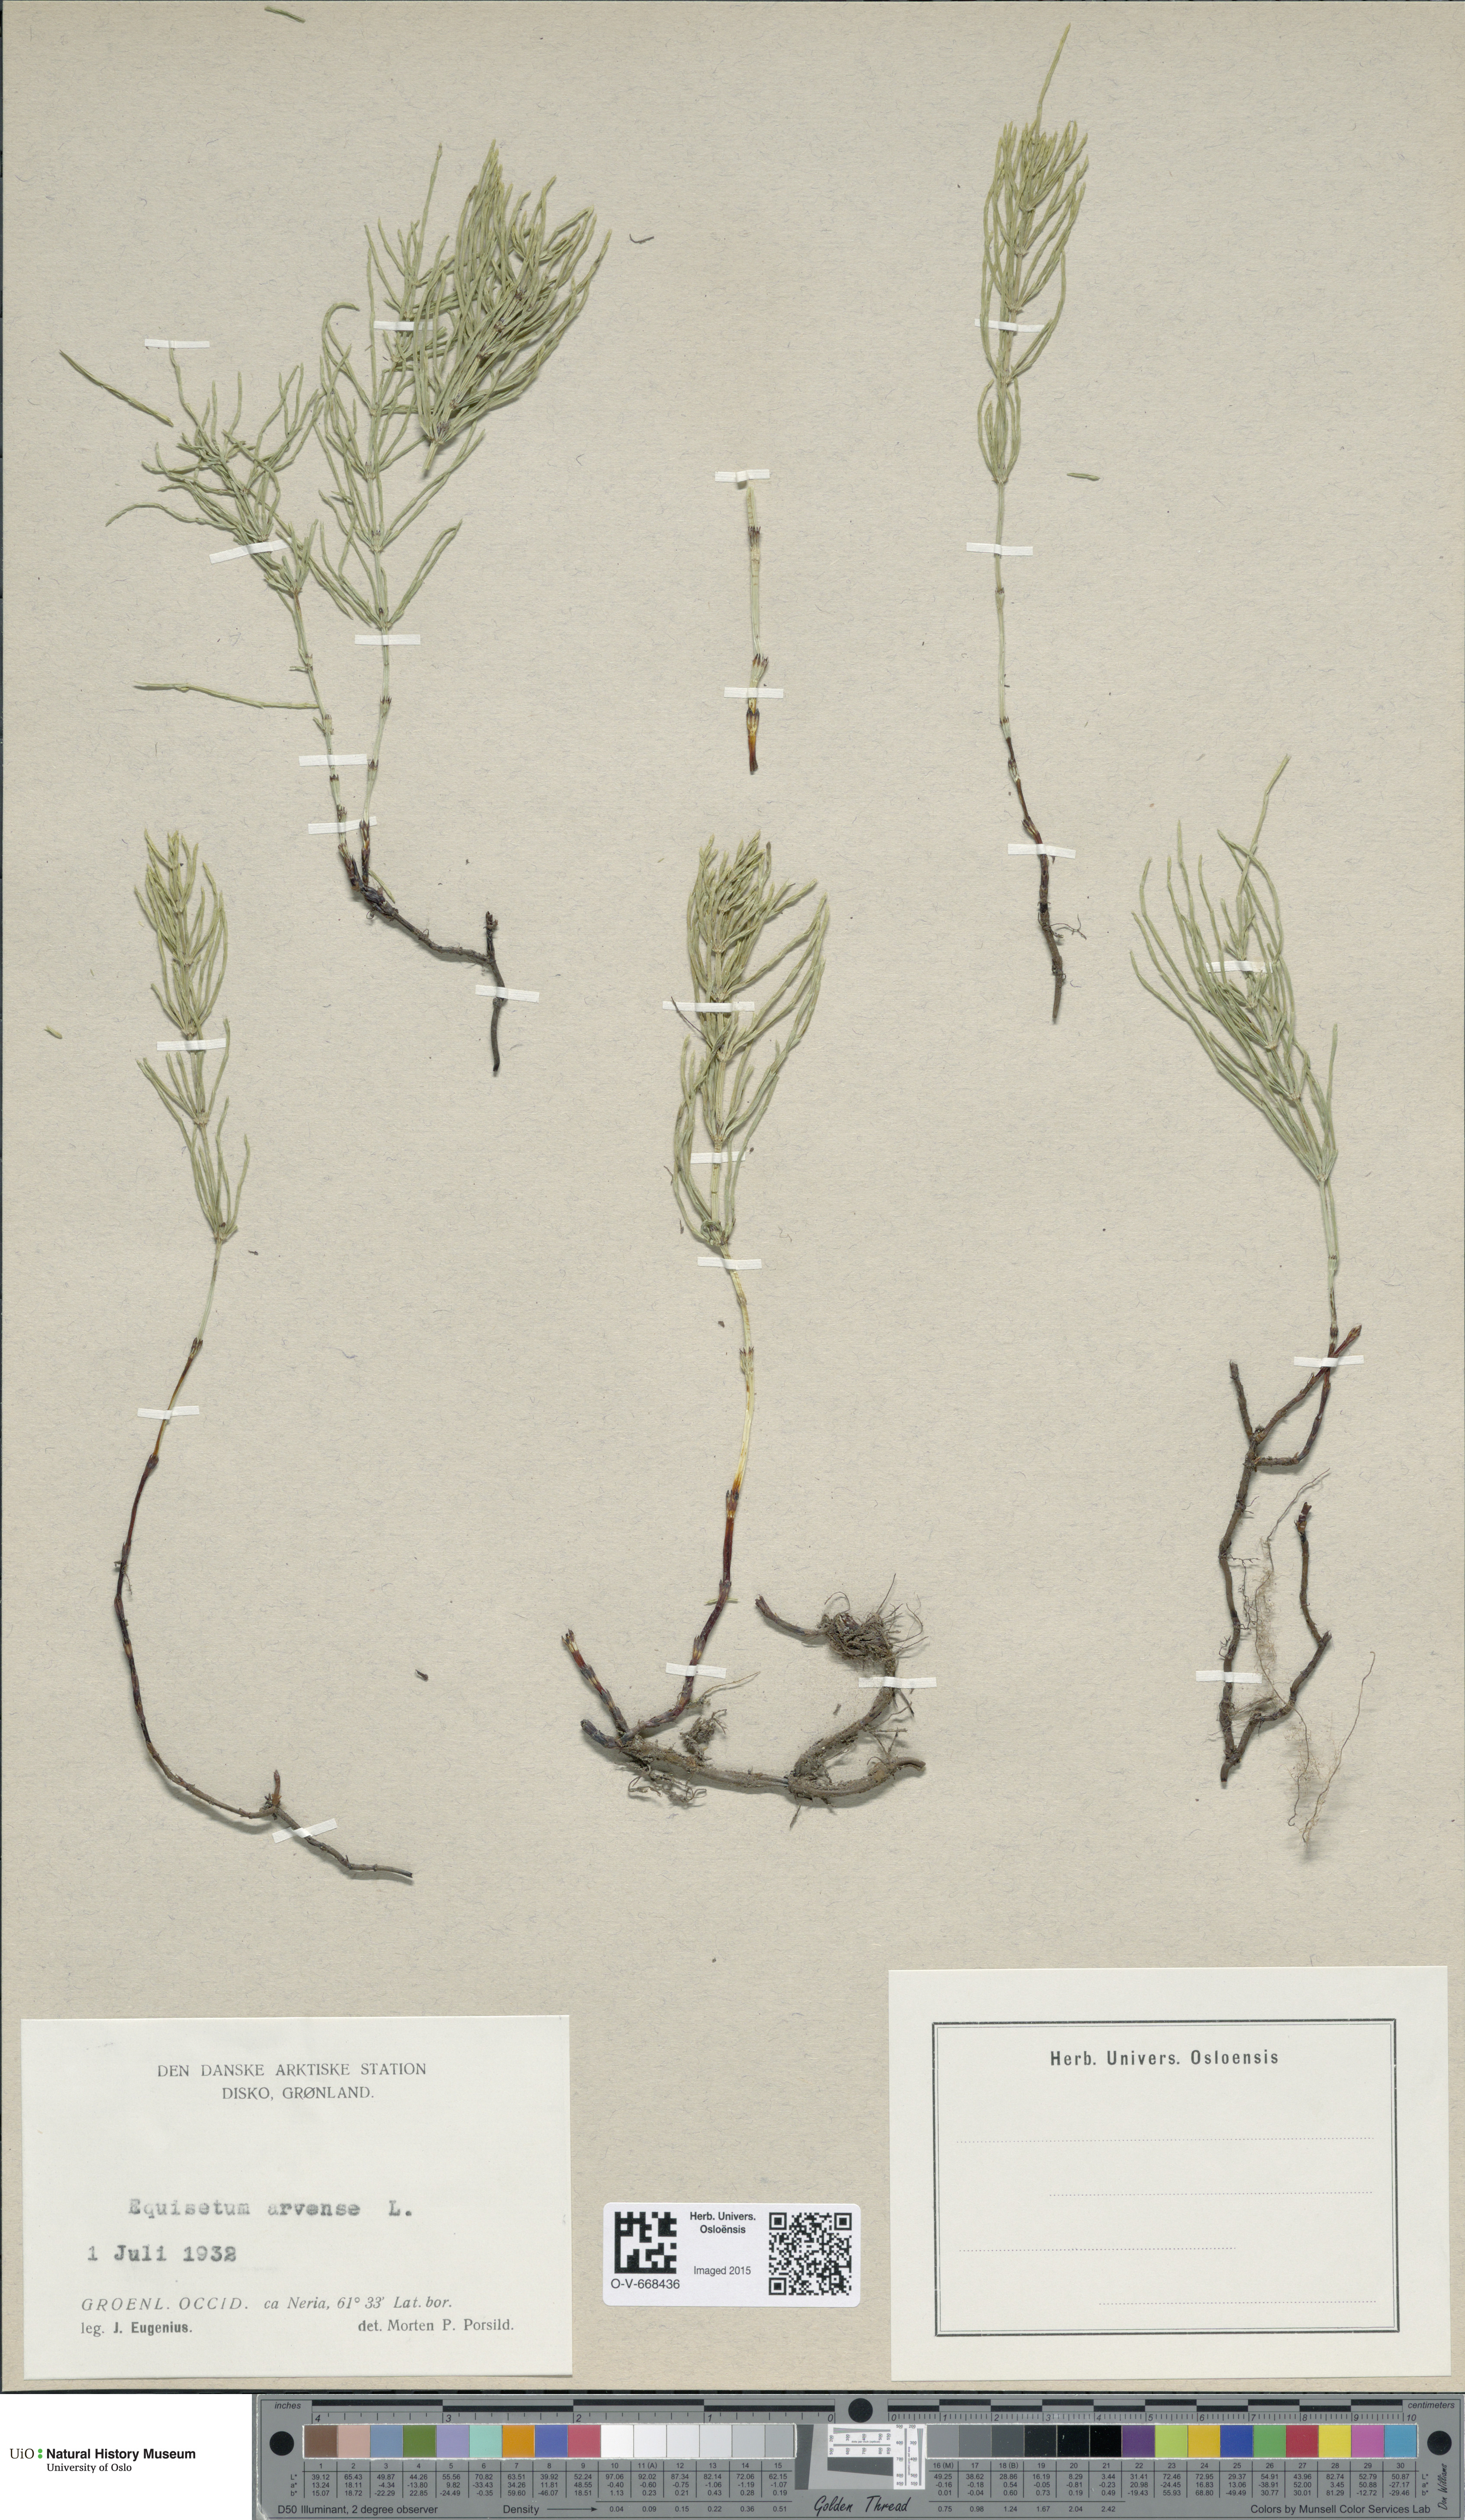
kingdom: Plantae
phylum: Tracheophyta
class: Polypodiopsida
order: Equisetales
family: Equisetaceae
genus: Equisetum
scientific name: Equisetum arvense
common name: Field horsetail
